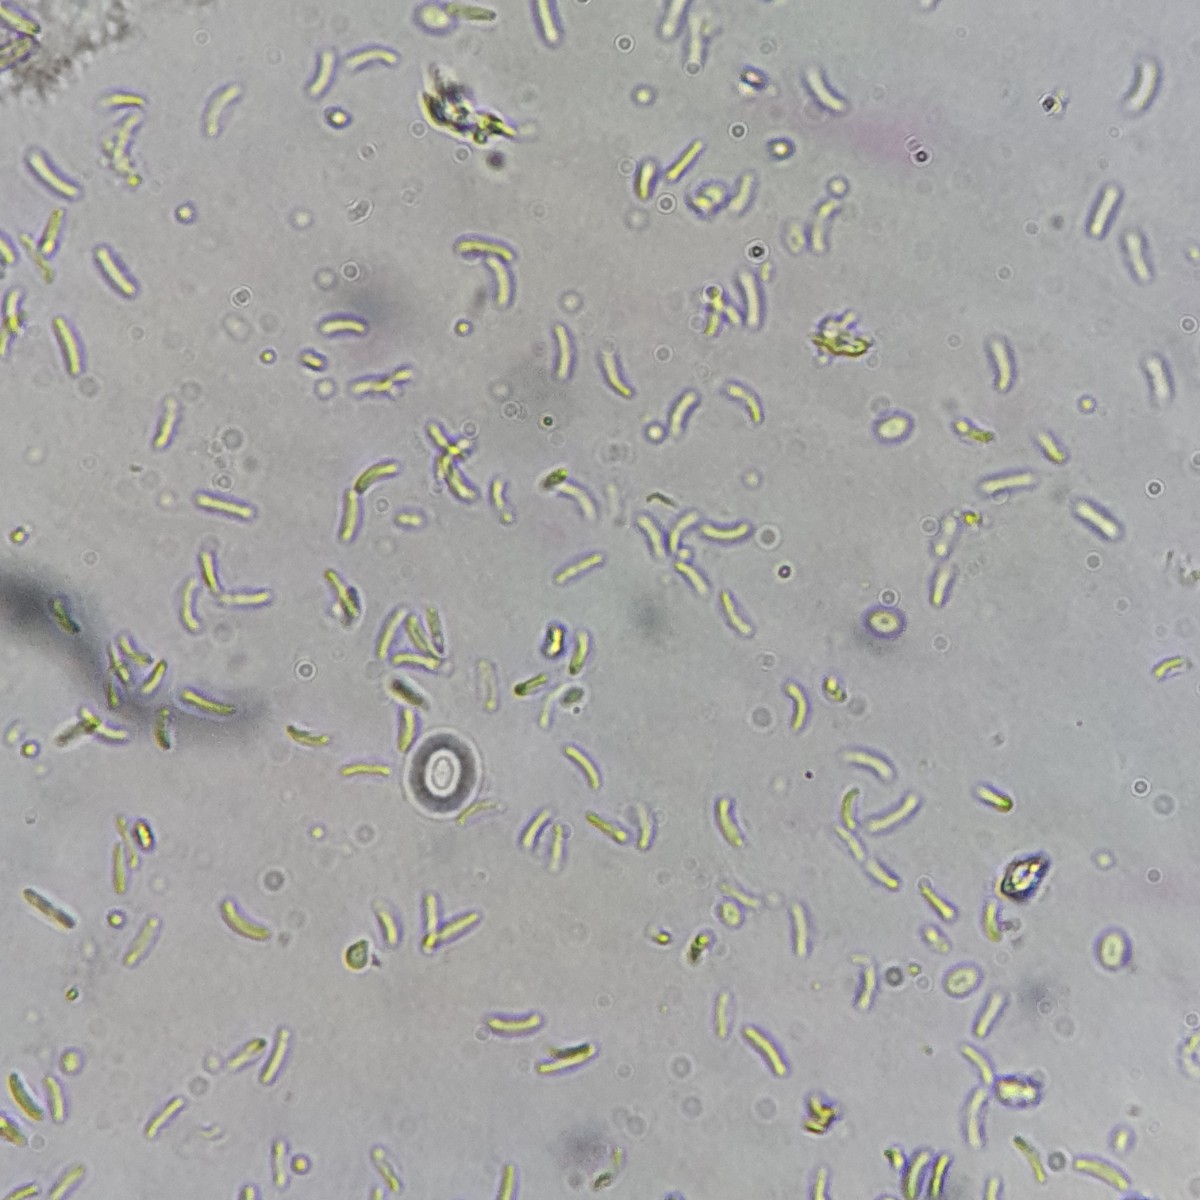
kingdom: Fungi
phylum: Ascomycota
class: Sordariomycetes
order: Diaporthales
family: Valsaceae
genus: Cytospora
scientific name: Cytospora pruinosa
